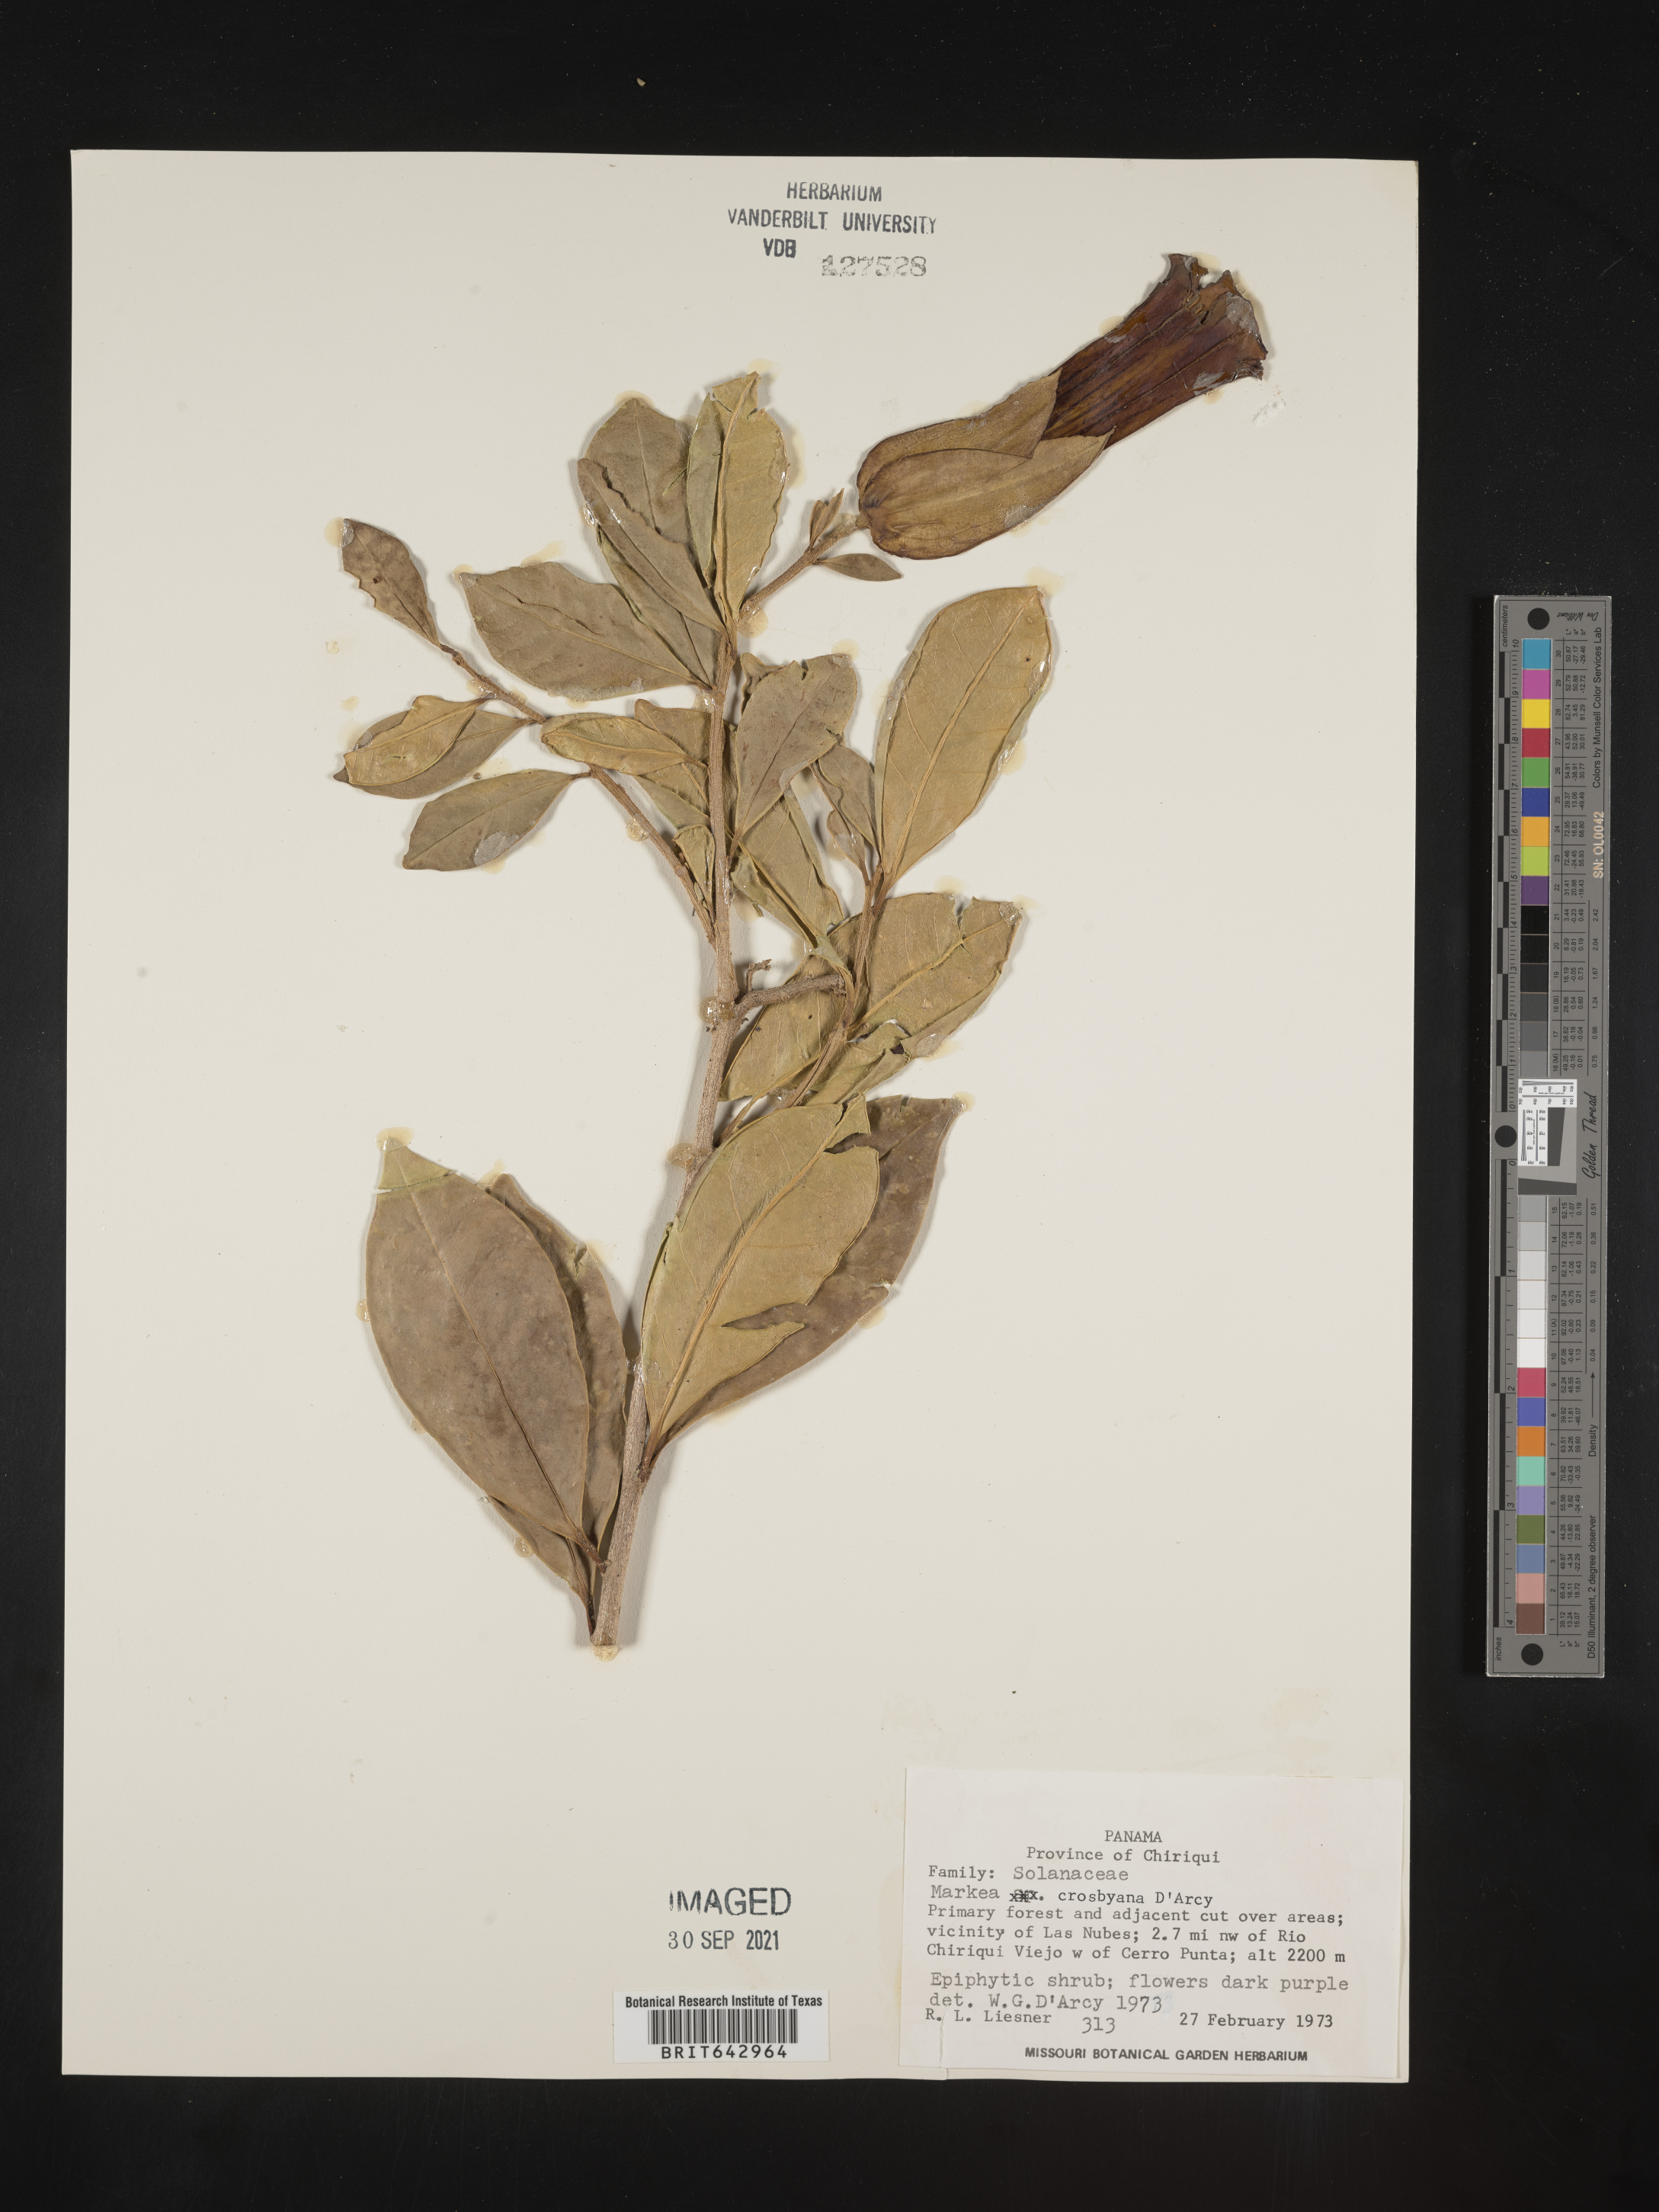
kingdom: Plantae
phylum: Tracheophyta
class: Magnoliopsida
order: Solanales
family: Solanaceae
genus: Markea
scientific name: Markea
